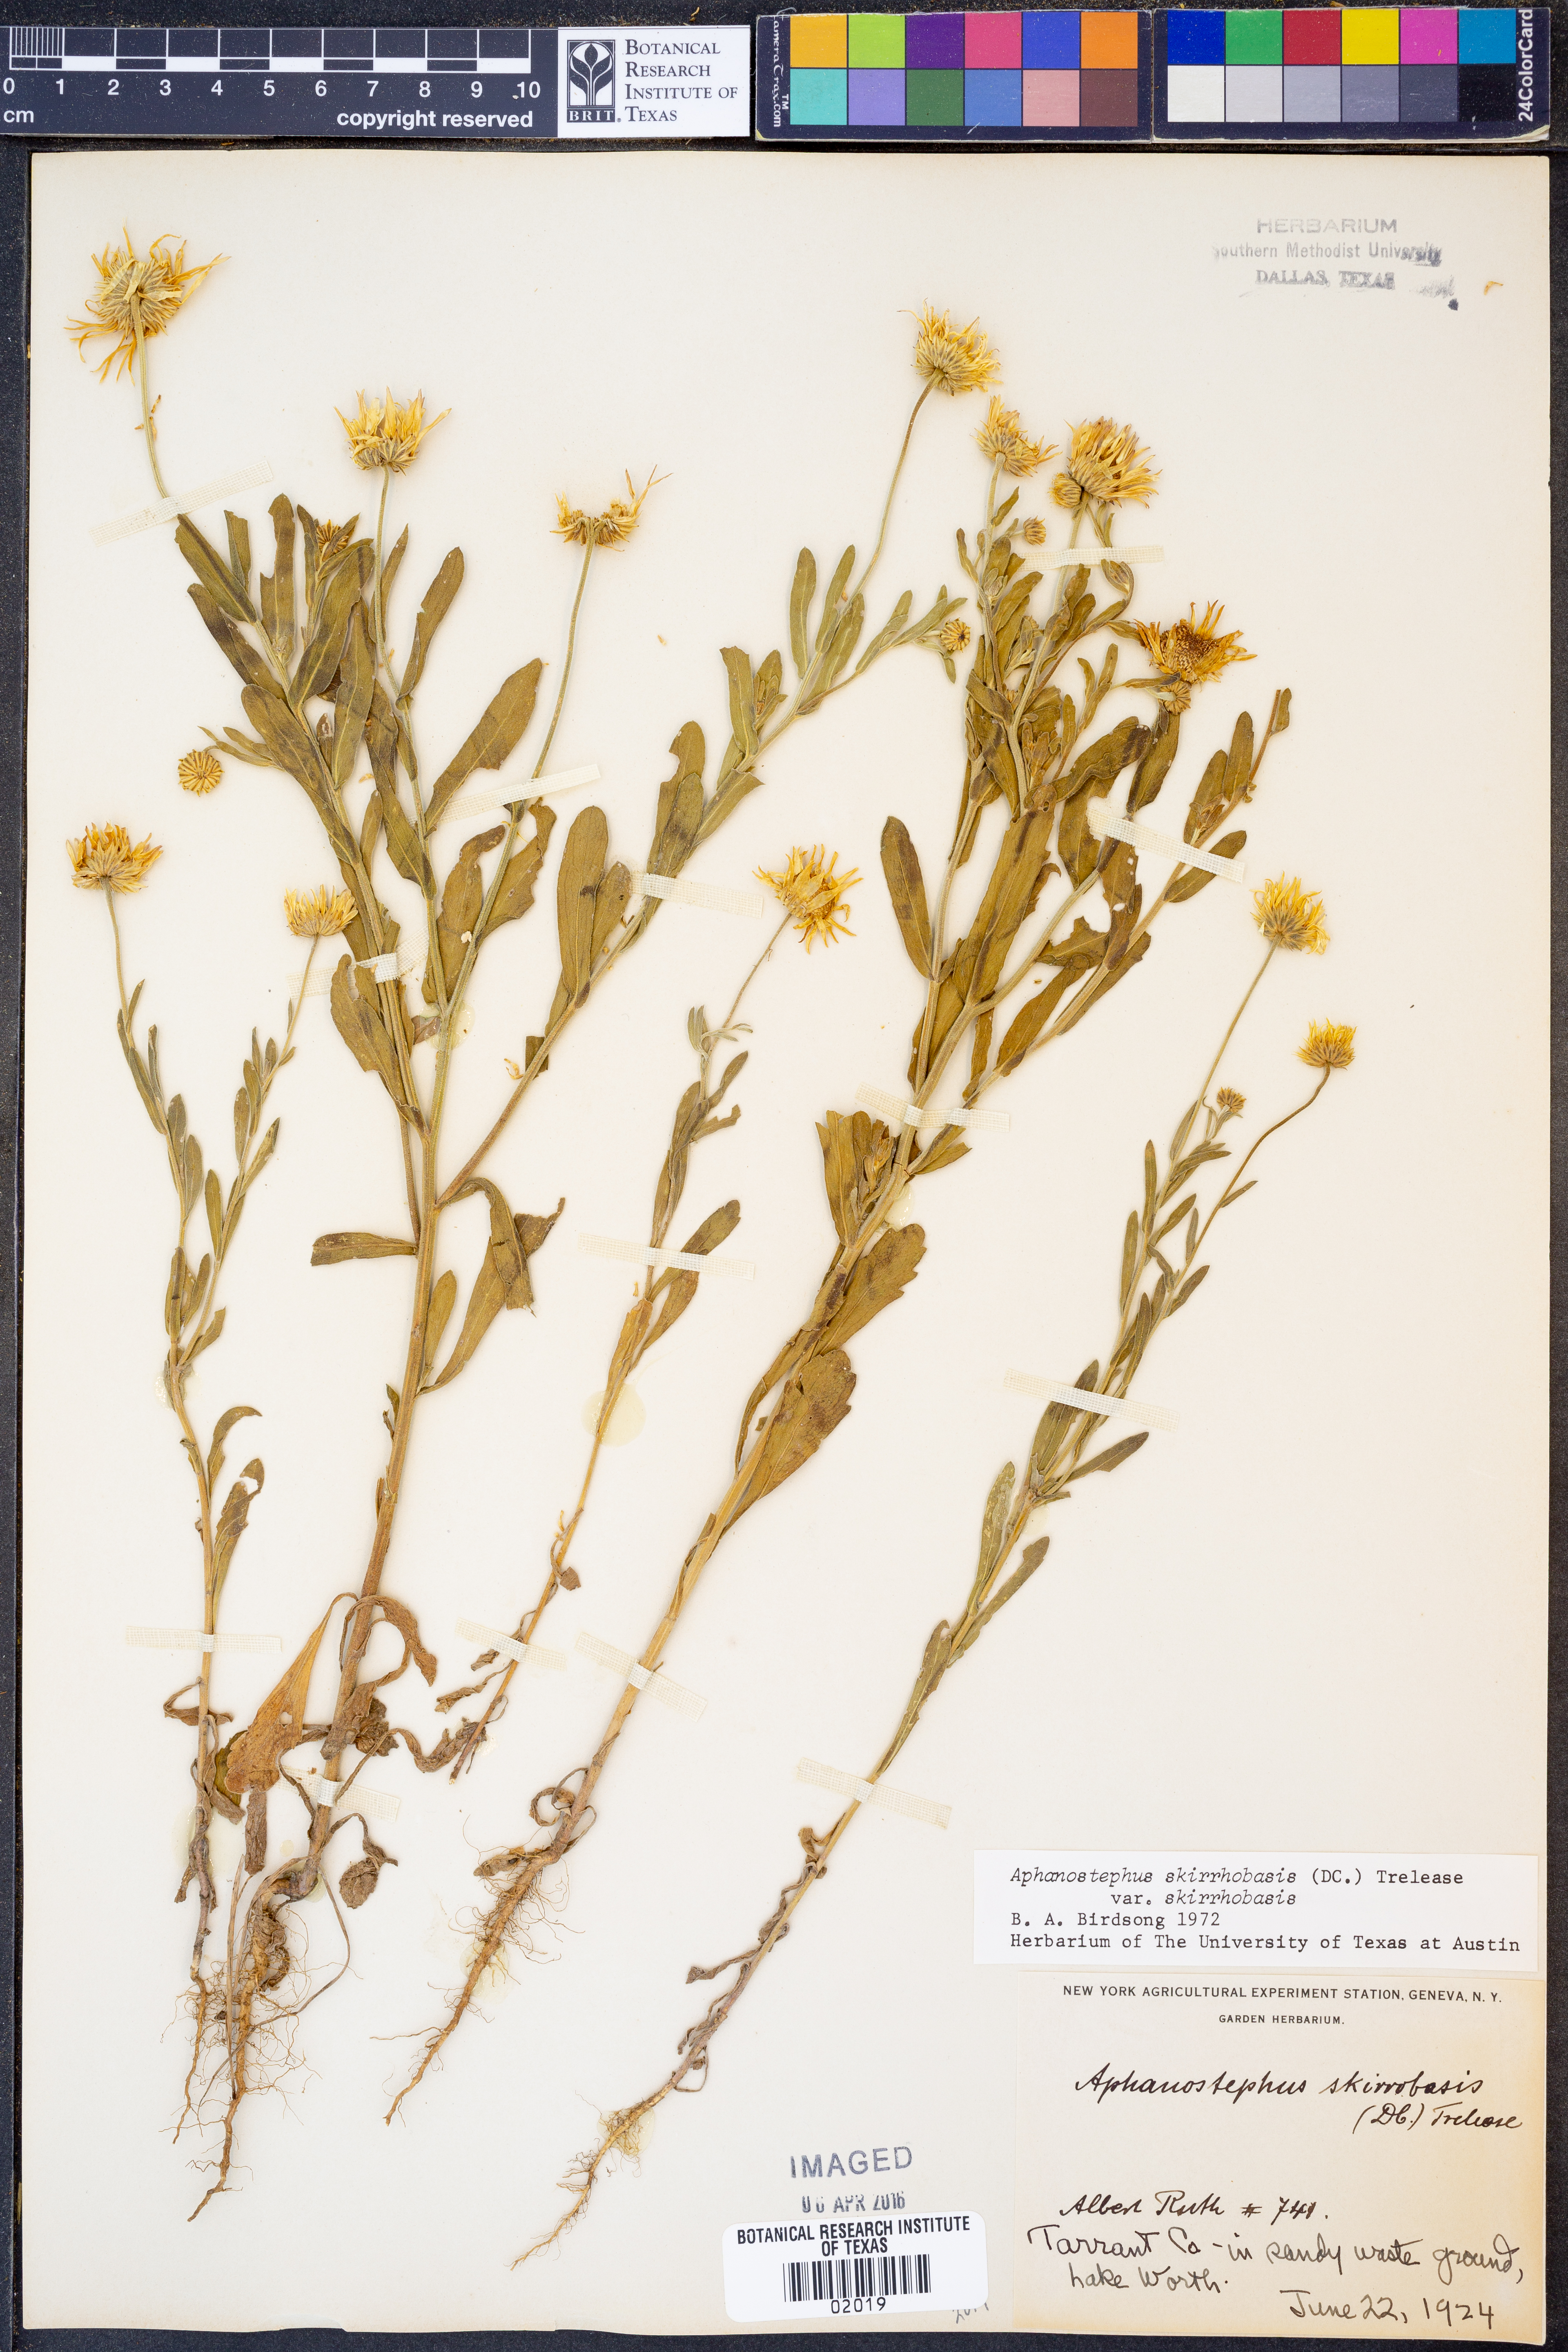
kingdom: Plantae
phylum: Tracheophyta
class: Magnoliopsida
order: Asterales
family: Asteraceae
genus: Aphanostephus
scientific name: Aphanostephus skirrhobasis
